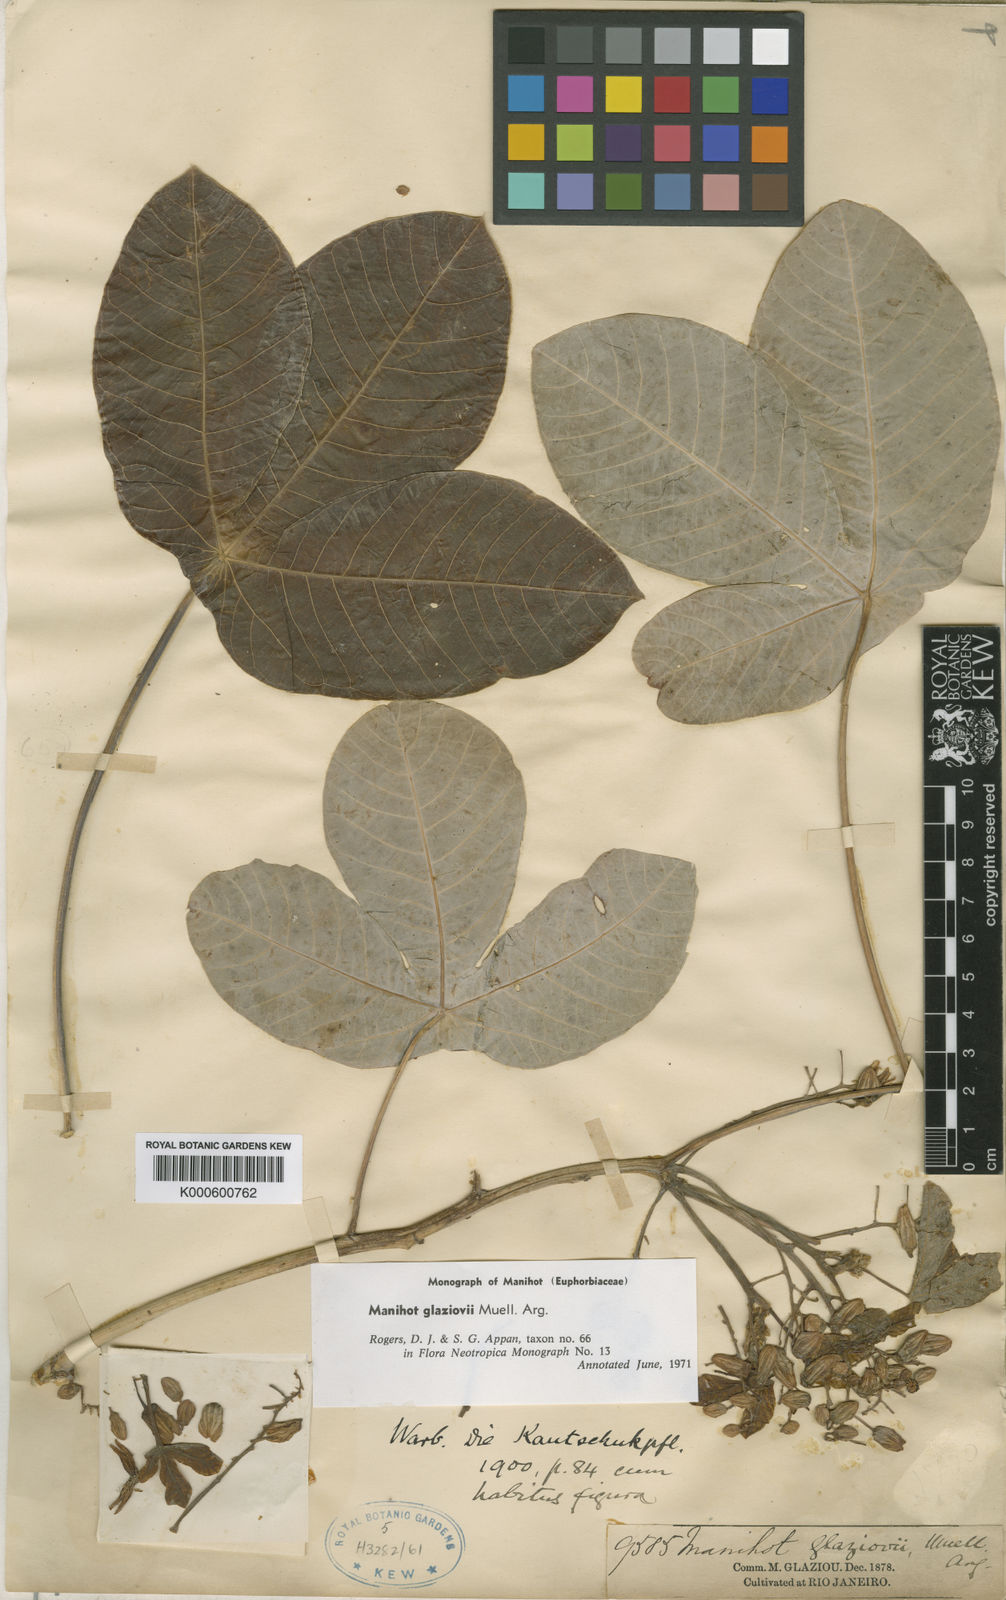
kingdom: Plantae
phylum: Tracheophyta
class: Magnoliopsida
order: Malpighiales
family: Euphorbiaceae
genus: Manihot
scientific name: Manihot
